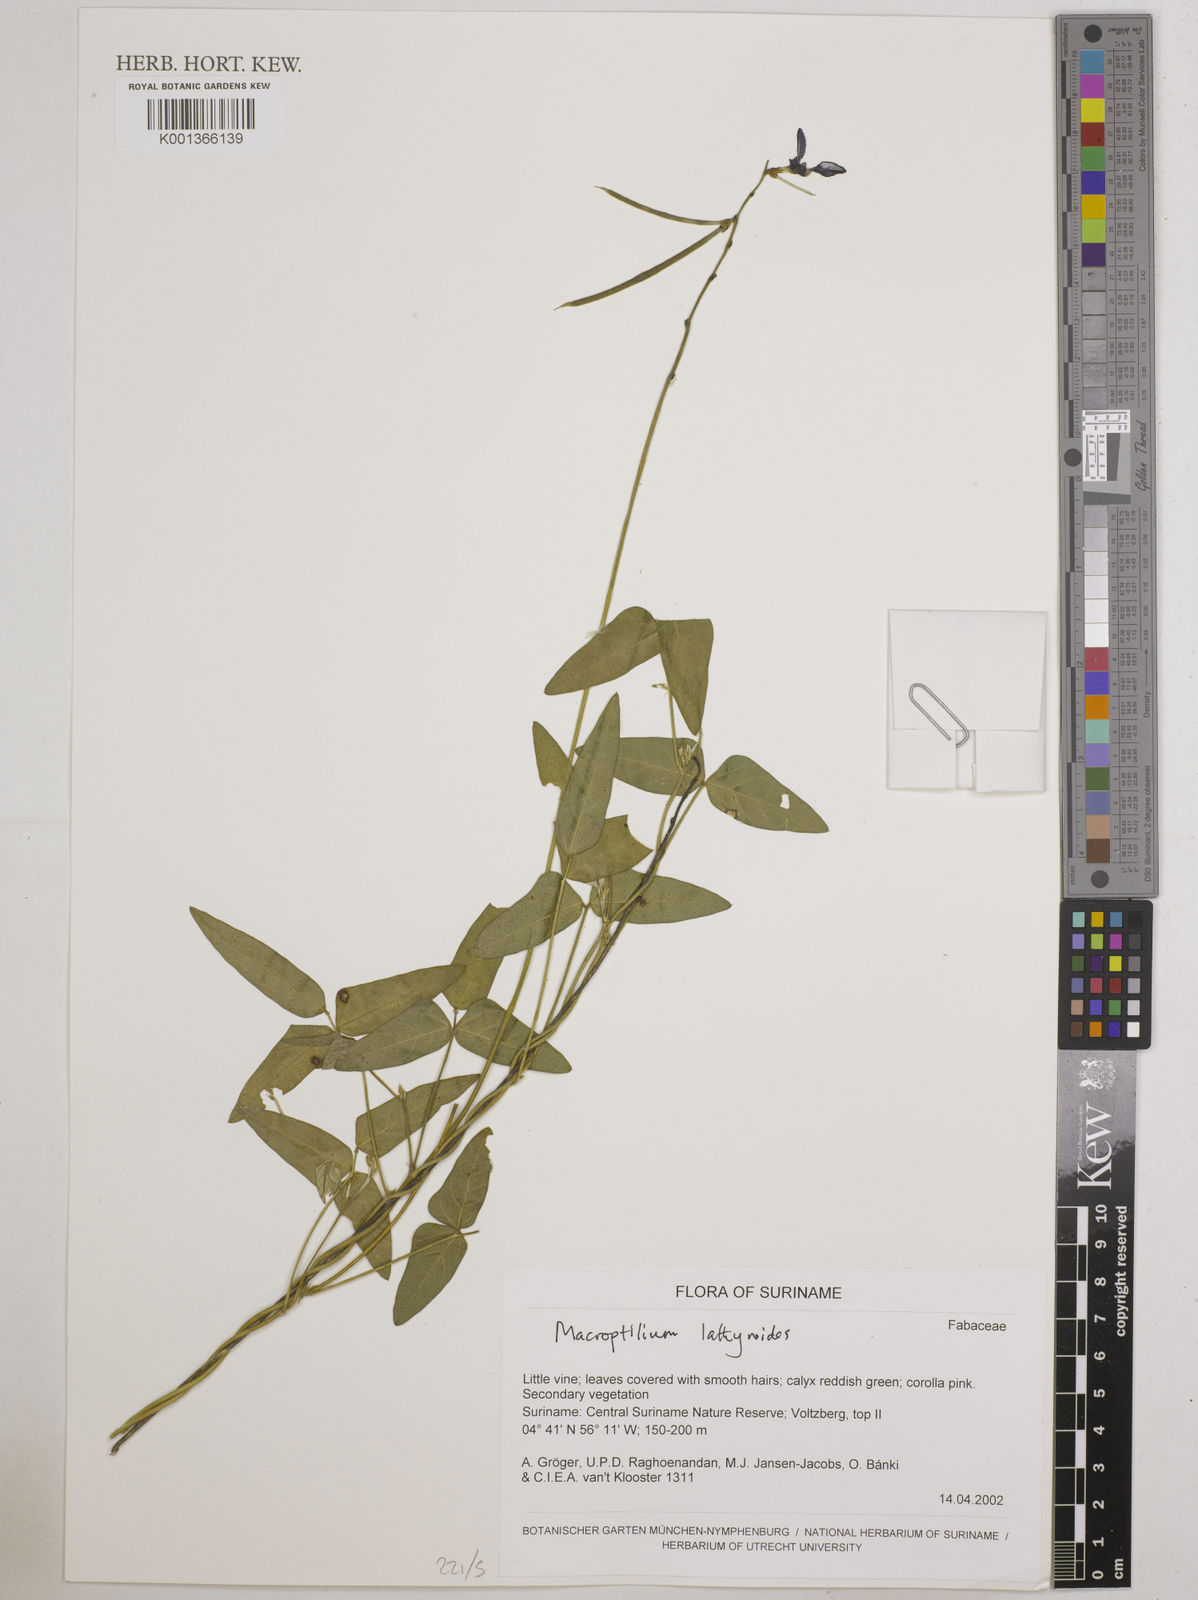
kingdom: Plantae
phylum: Tracheophyta
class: Magnoliopsida
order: Fabales
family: Fabaceae
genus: Macroptilium
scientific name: Macroptilium lathyroides
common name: Wild bushbean
